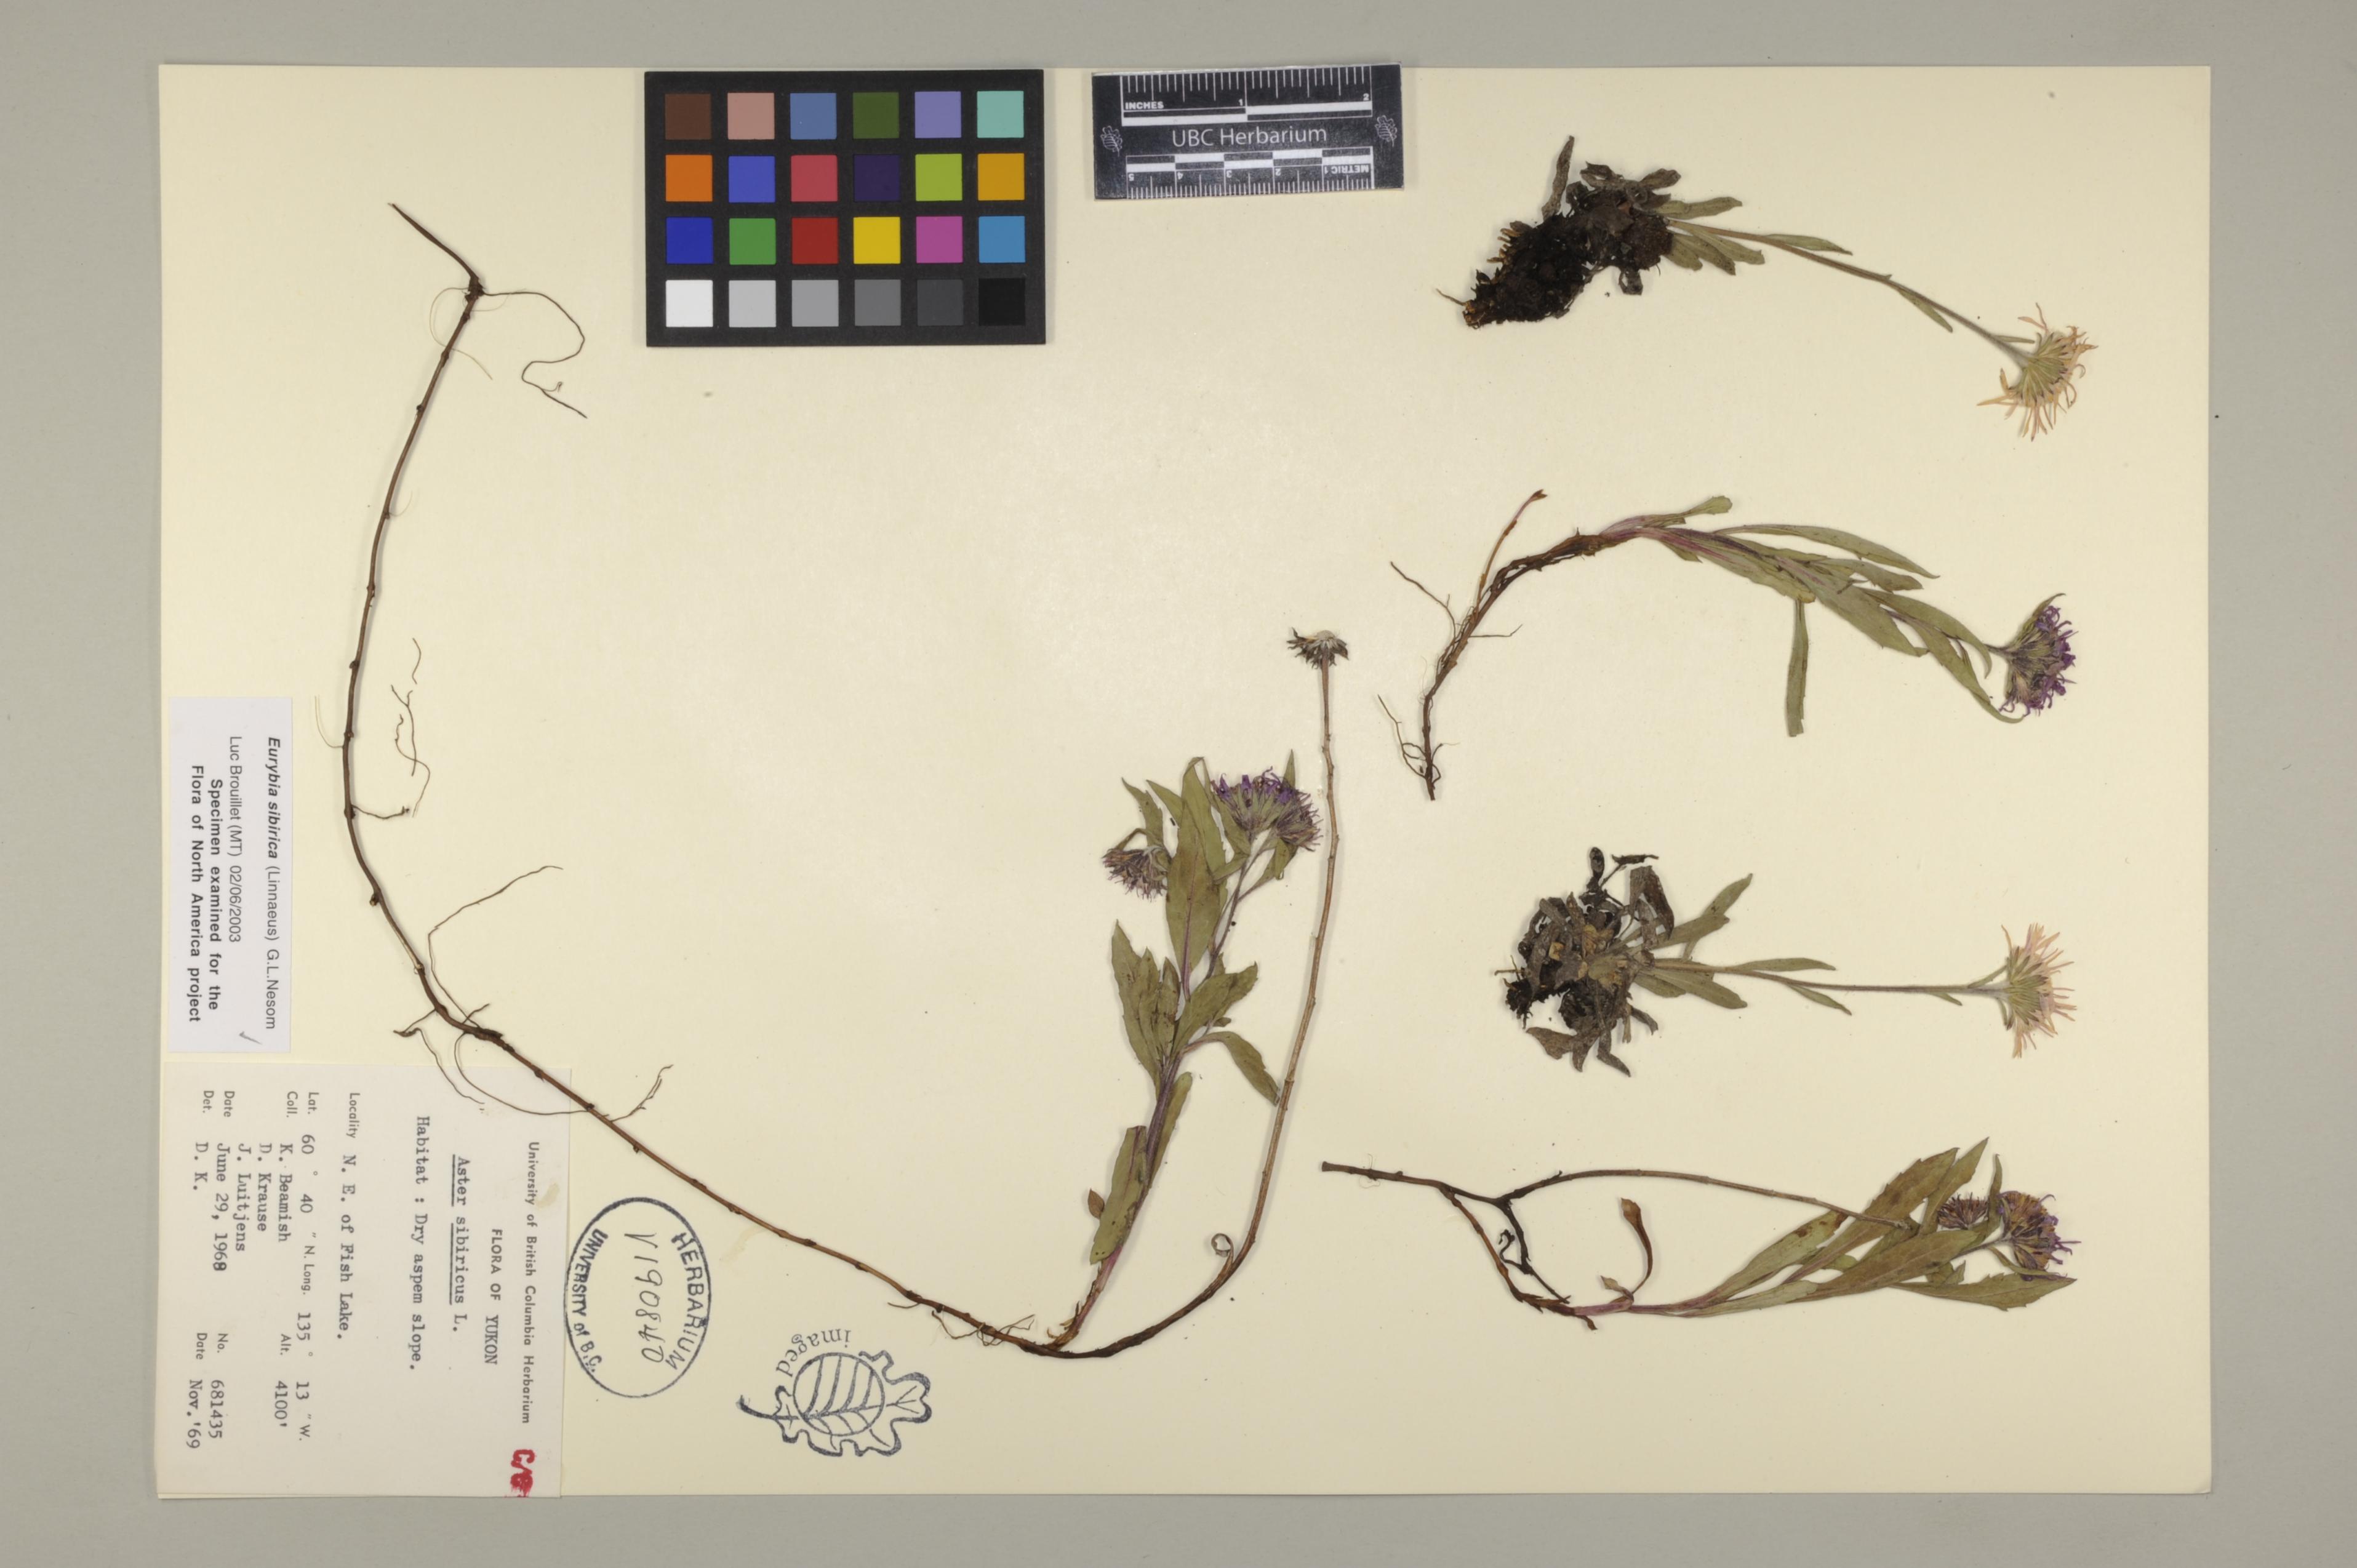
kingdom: Plantae
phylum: Tracheophyta
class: Magnoliopsida
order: Asterales
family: Asteraceae
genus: Eurybia
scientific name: Eurybia sibirica
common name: Arctic aster
